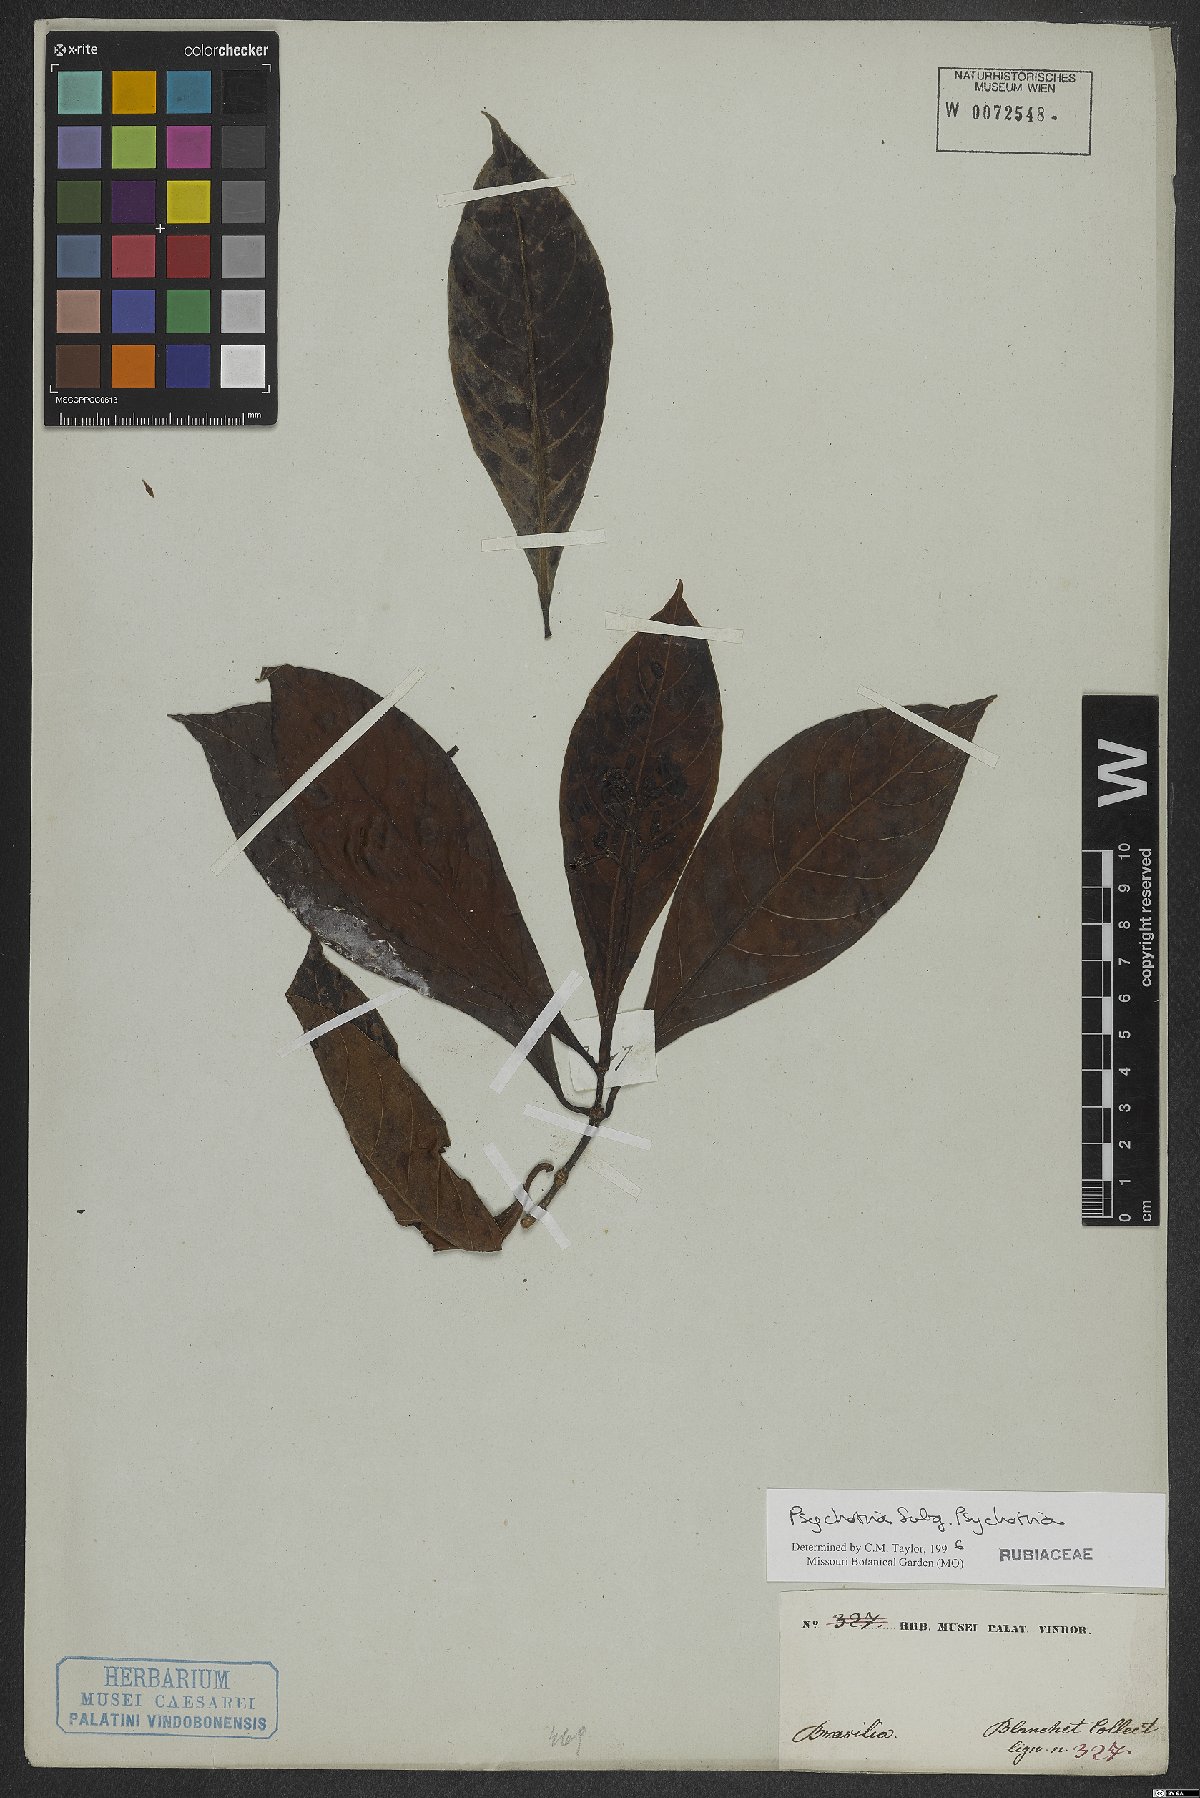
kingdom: Plantae
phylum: Tracheophyta
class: Magnoliopsida
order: Gentianales
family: Rubiaceae
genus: Psychotria
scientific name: Psychotria
